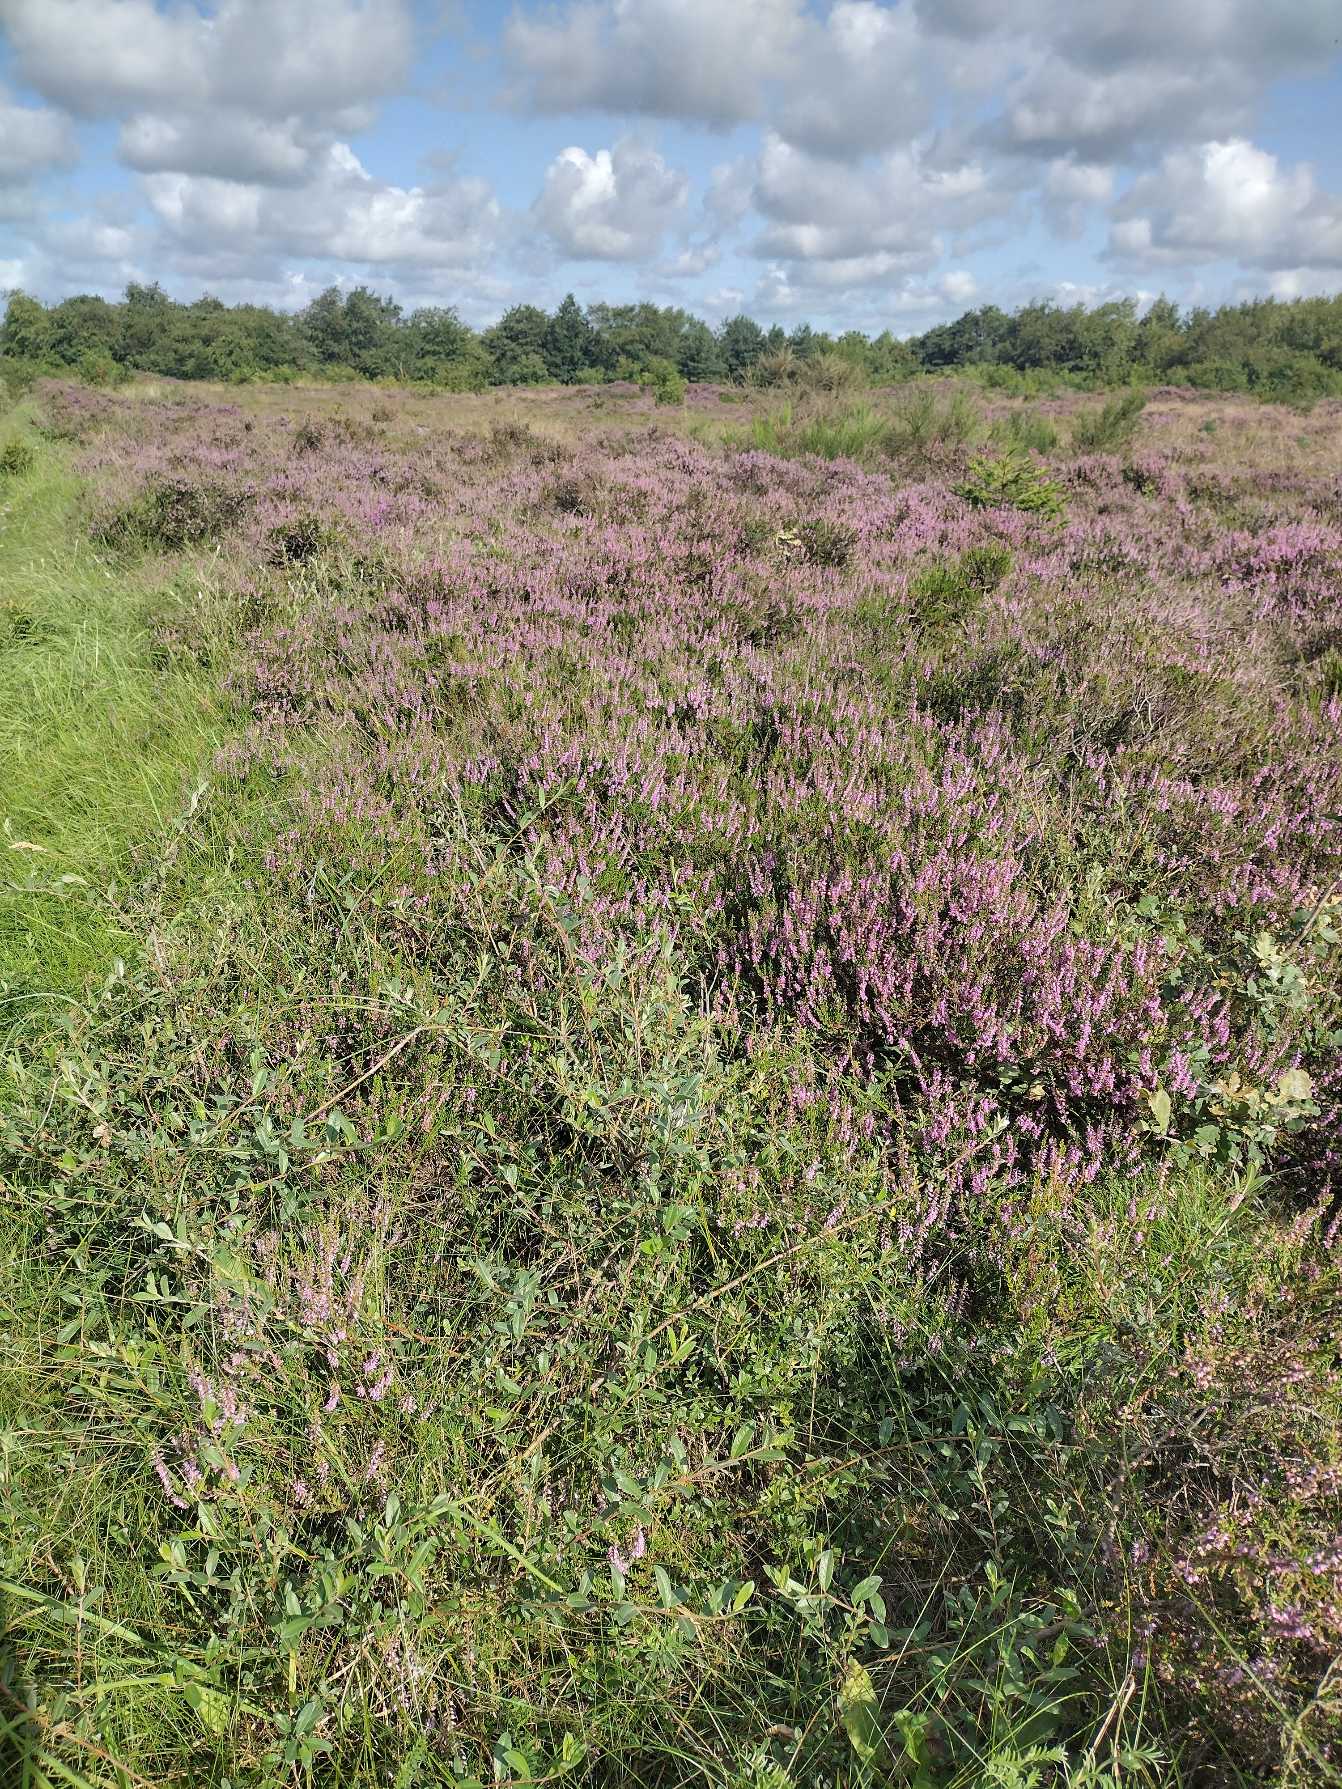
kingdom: Plantae
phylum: Tracheophyta
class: Magnoliopsida
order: Ericales
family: Ericaceae
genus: Calluna
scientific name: Calluna vulgaris
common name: Hedelyng
